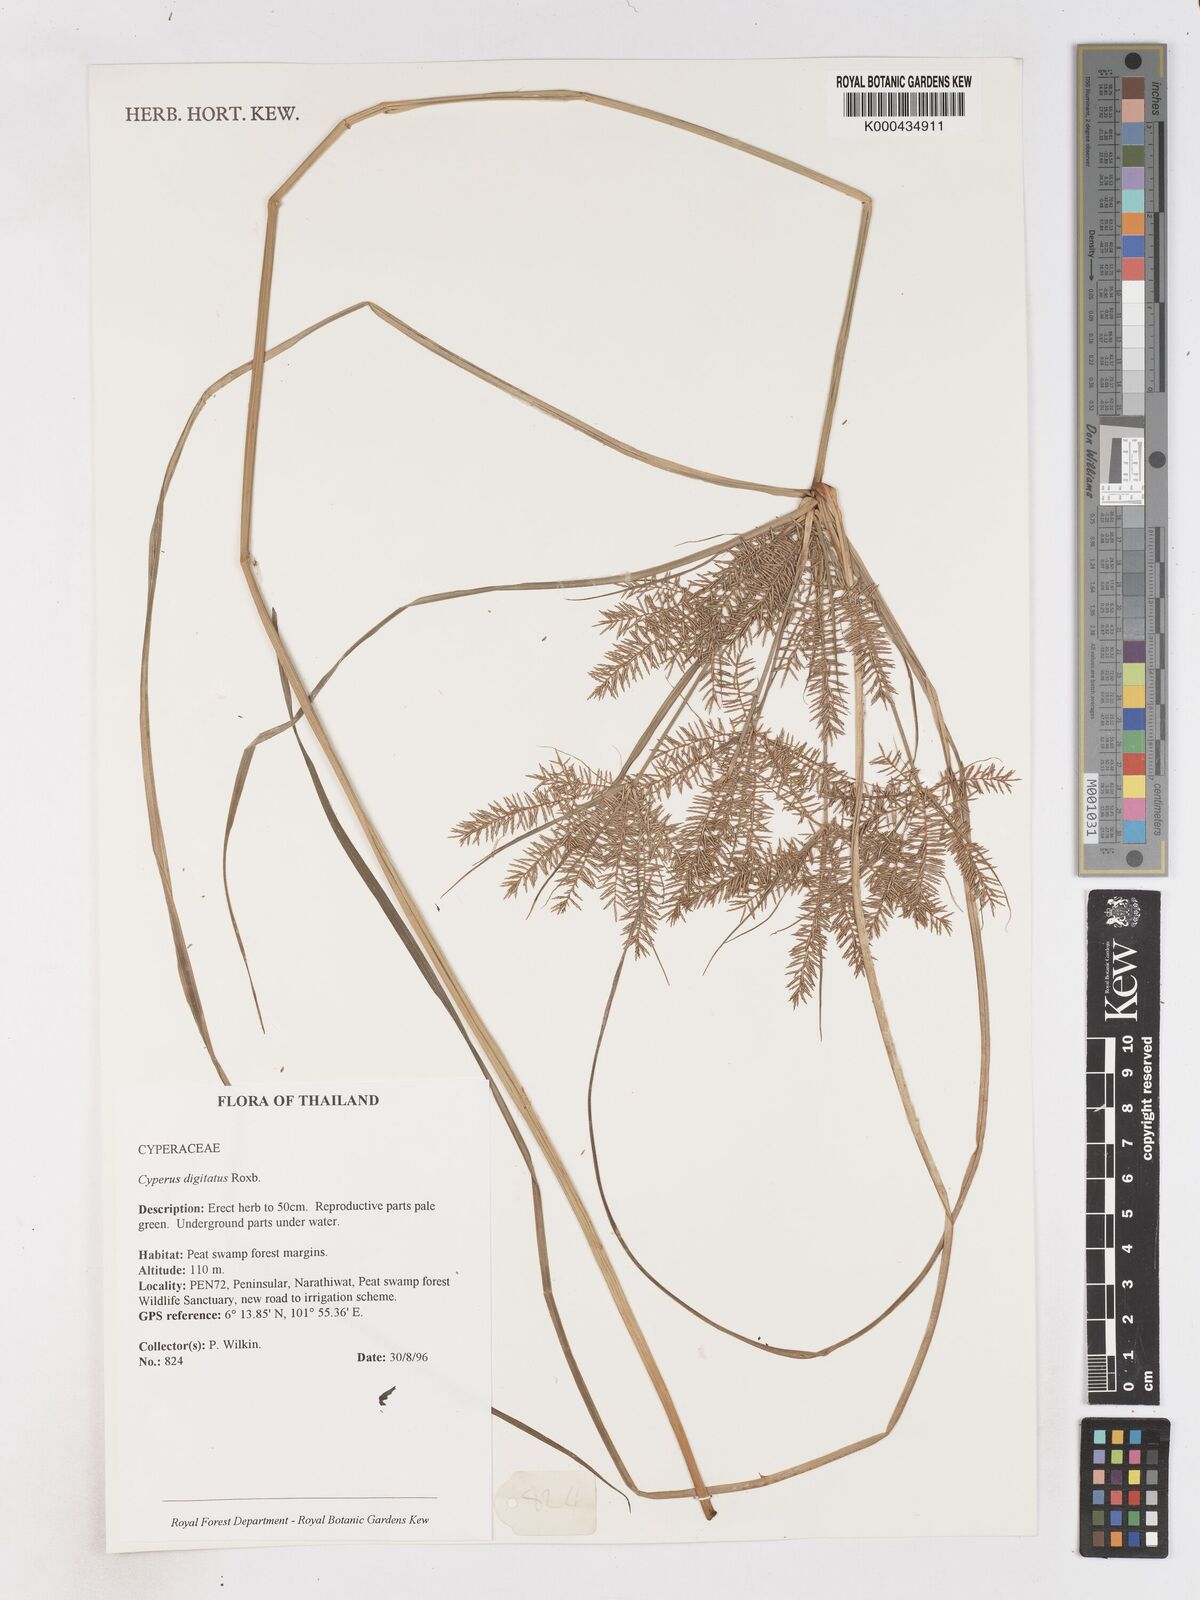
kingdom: Plantae
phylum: Tracheophyta
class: Liliopsida
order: Poales
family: Cyperaceae
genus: Cyperus
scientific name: Cyperus digitatus
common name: Finger flatsedge
